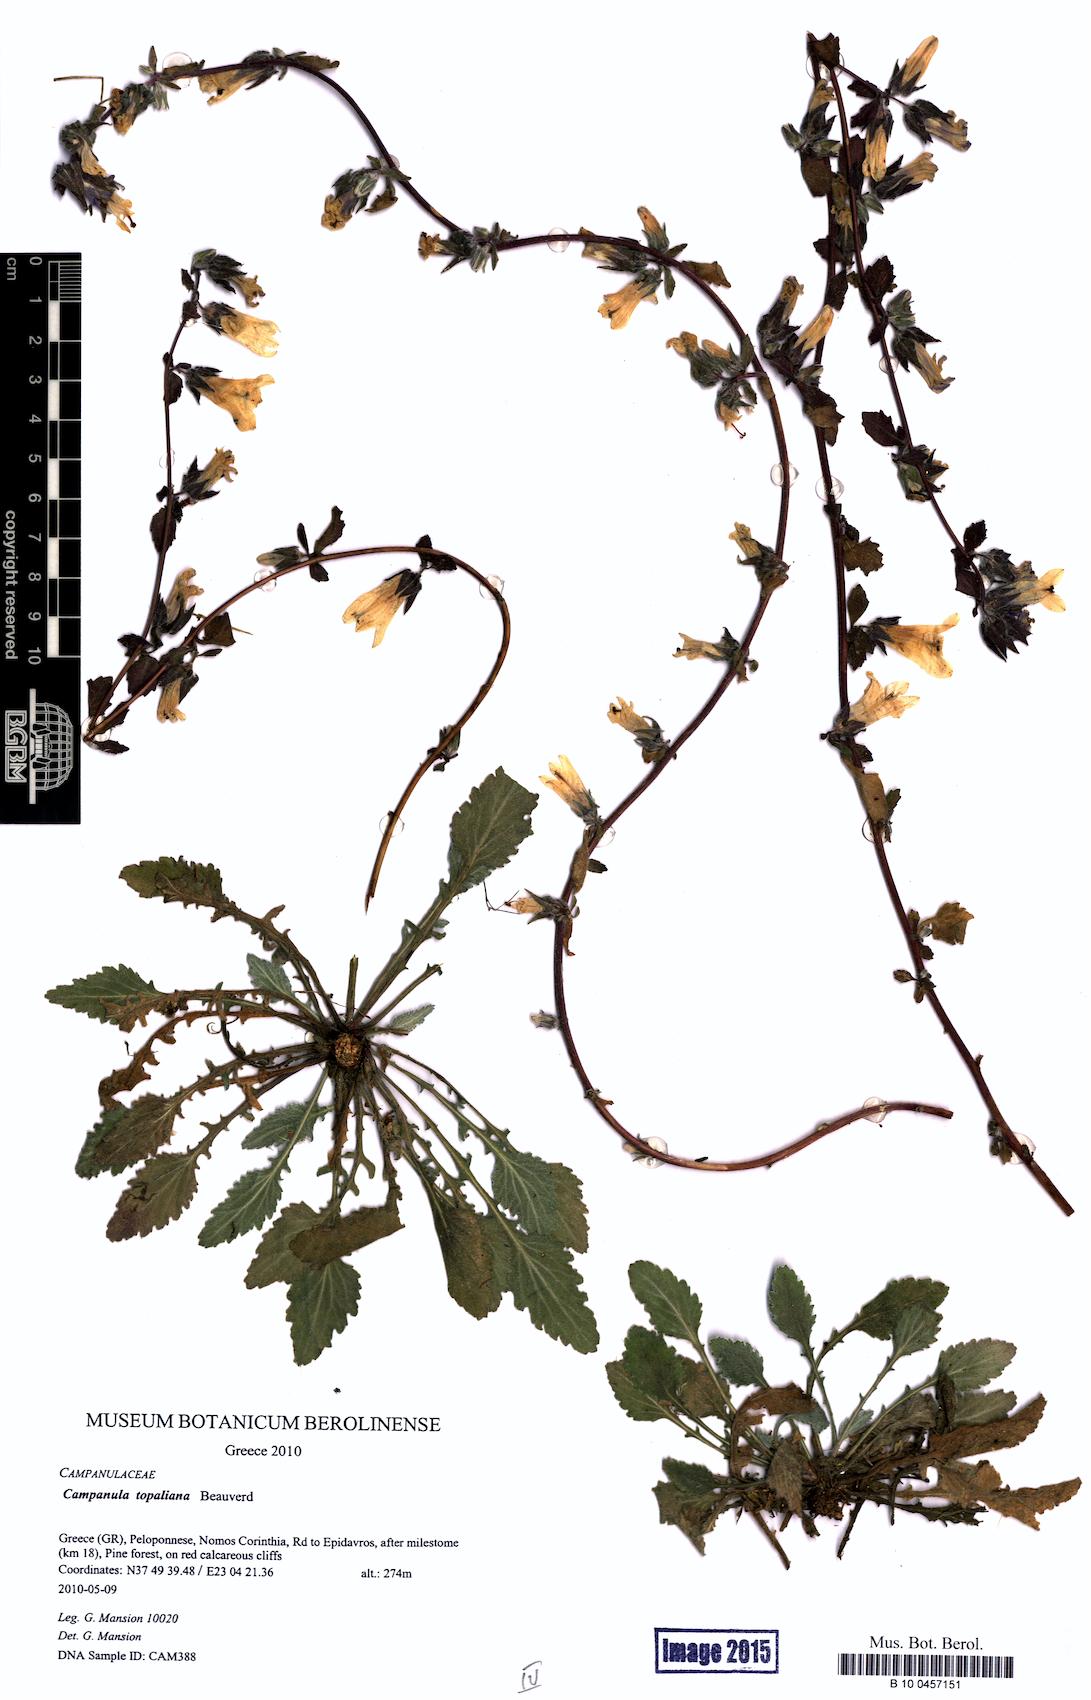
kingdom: Plantae
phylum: Tracheophyta
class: Magnoliopsida
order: Asterales
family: Campanulaceae
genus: Campanula
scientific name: Campanula topaliana
